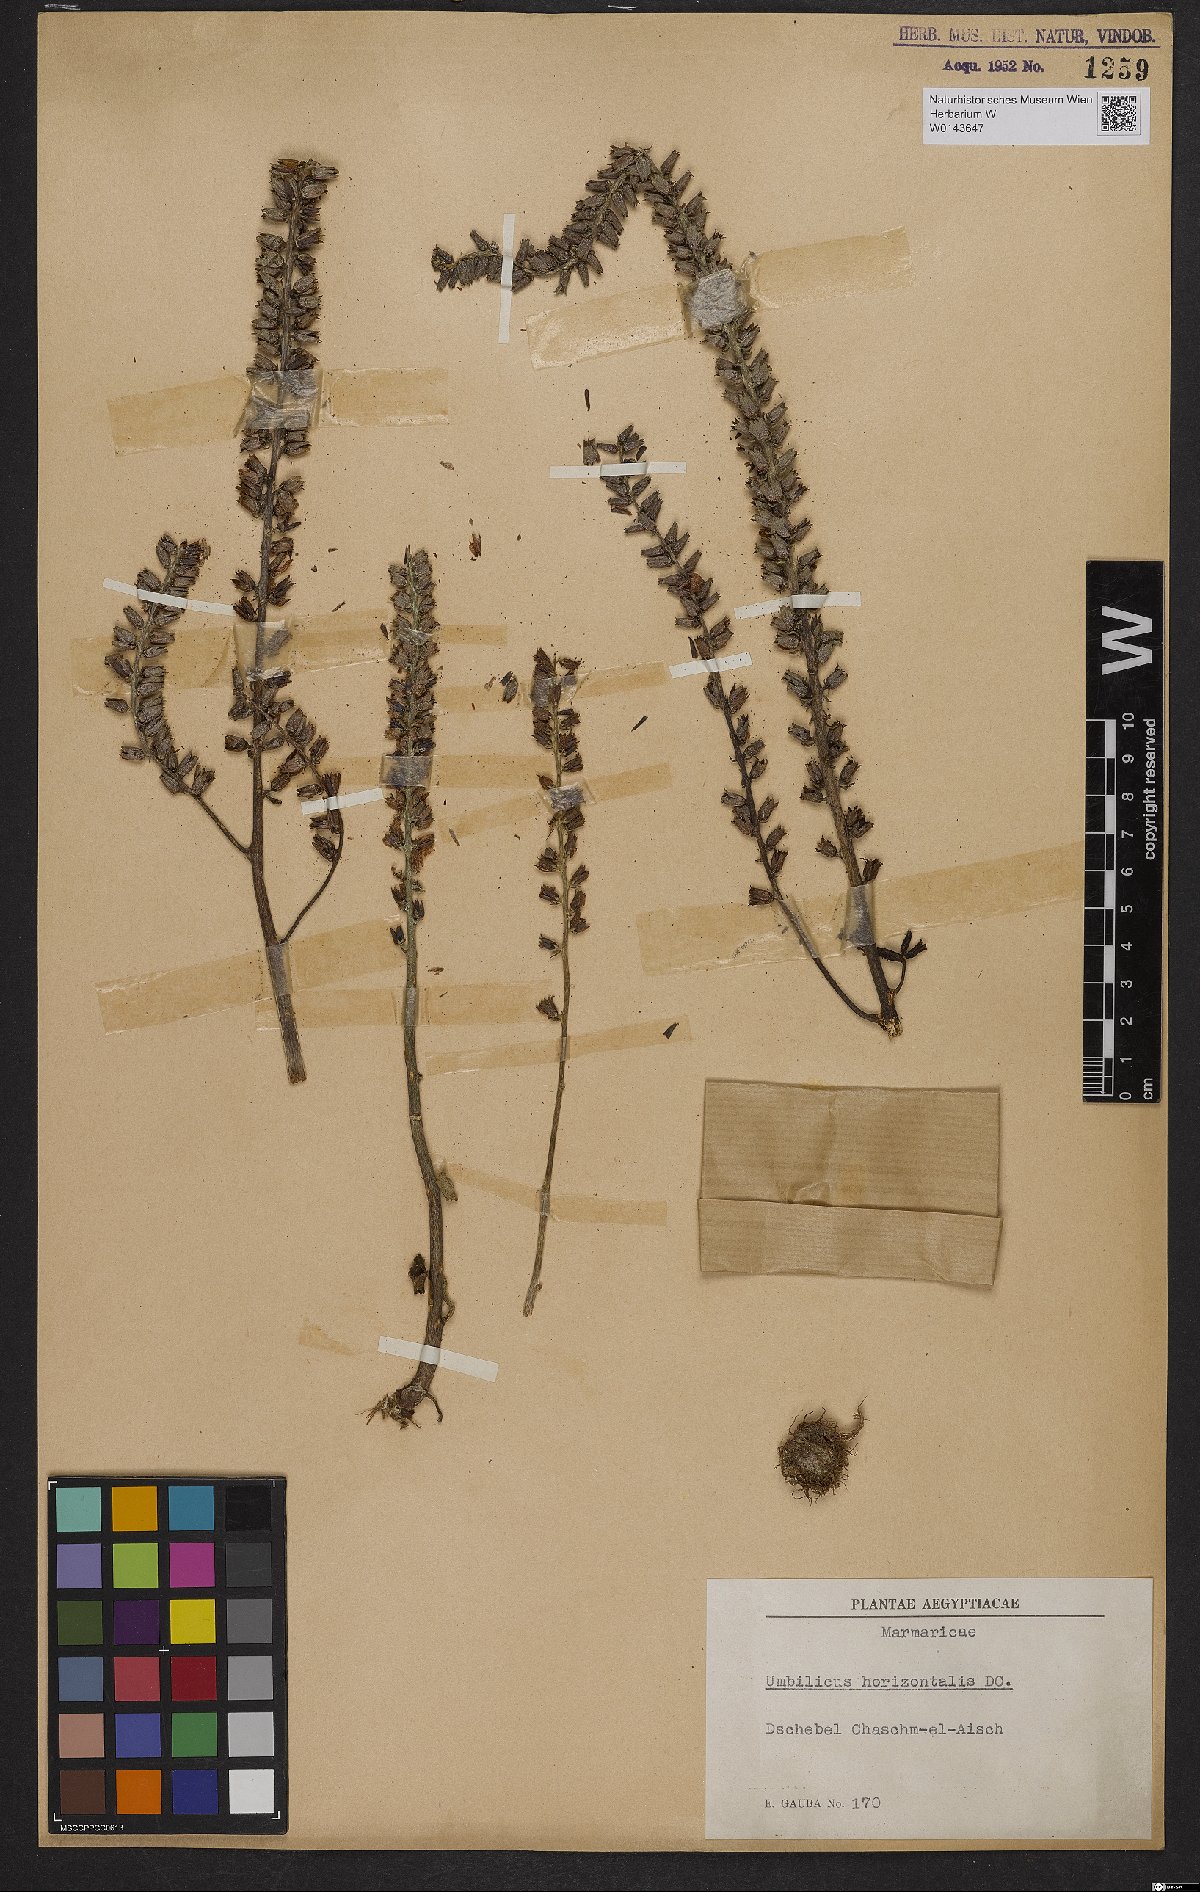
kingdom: Plantae
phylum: Tracheophyta
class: Magnoliopsida
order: Saxifragales
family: Crassulaceae
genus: Umbilicus
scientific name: Umbilicus horizontalis
